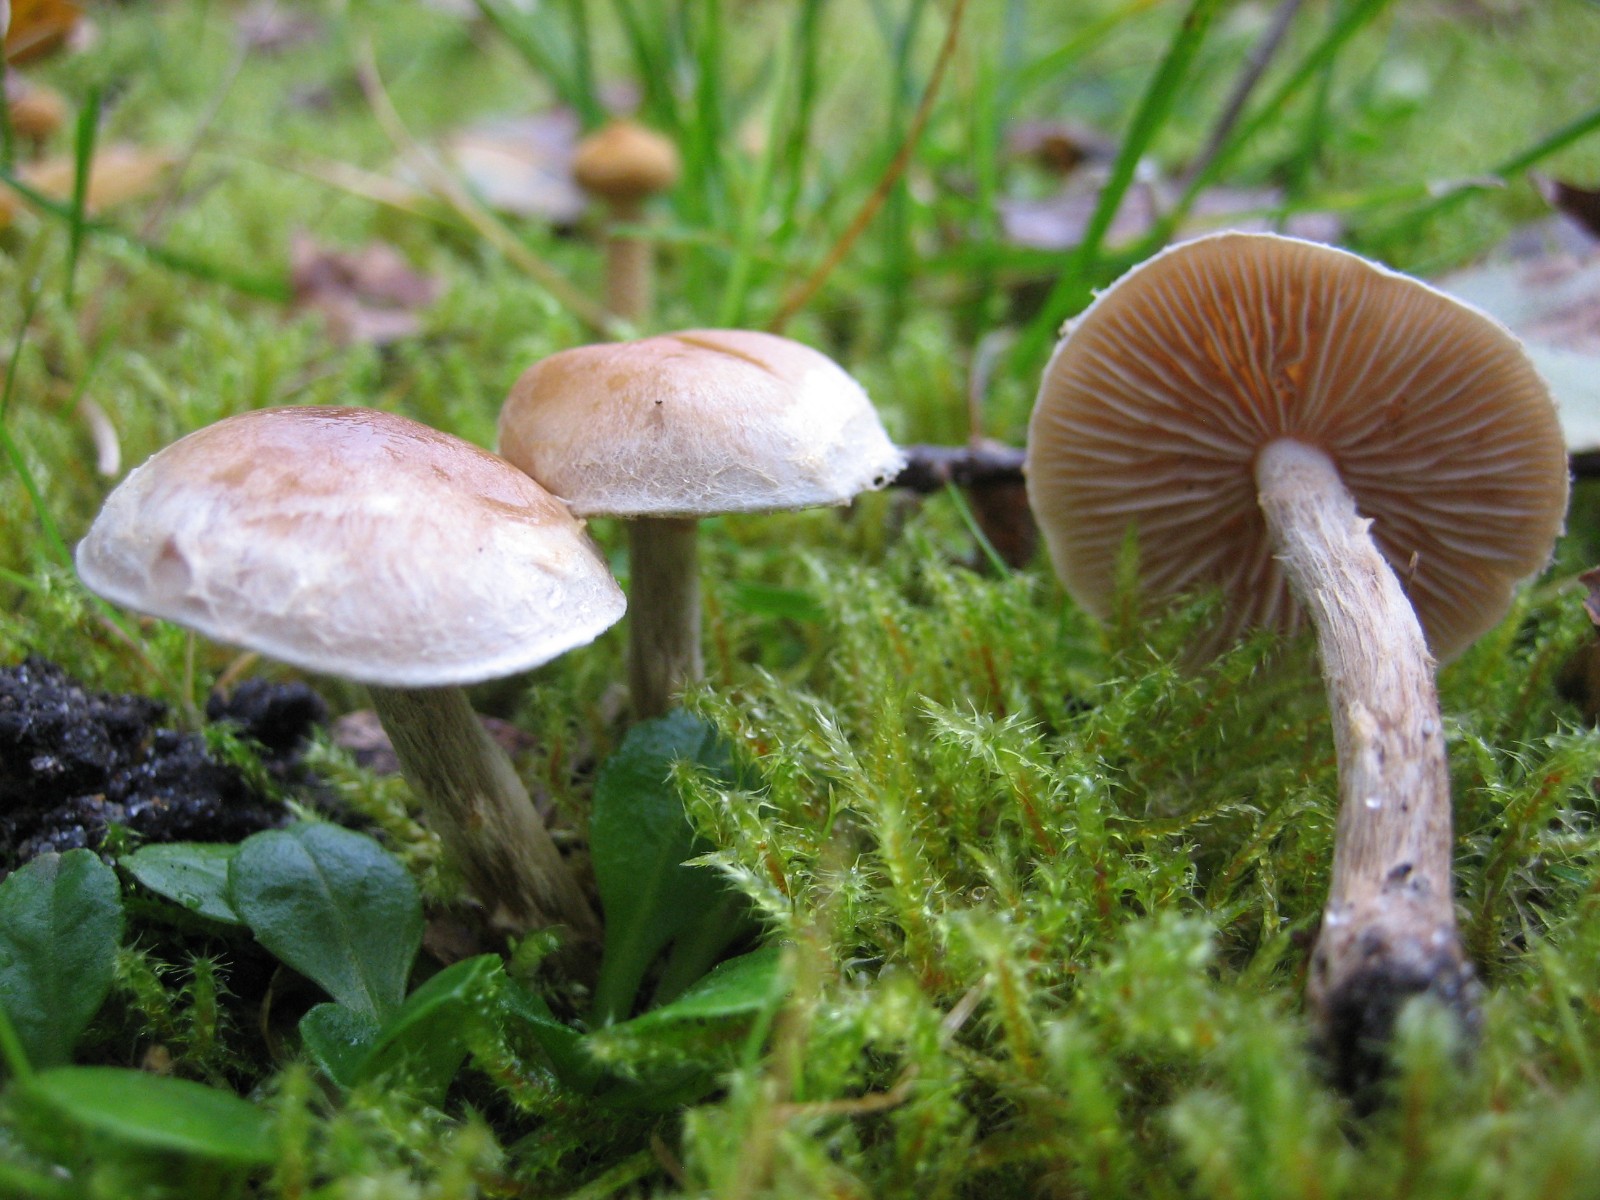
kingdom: Fungi
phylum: Basidiomycota
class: Agaricomycetes
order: Agaricales
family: Hymenogastraceae
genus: Hebeloma
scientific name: Hebeloma mesophaeum
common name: lerbrun tåreblad
